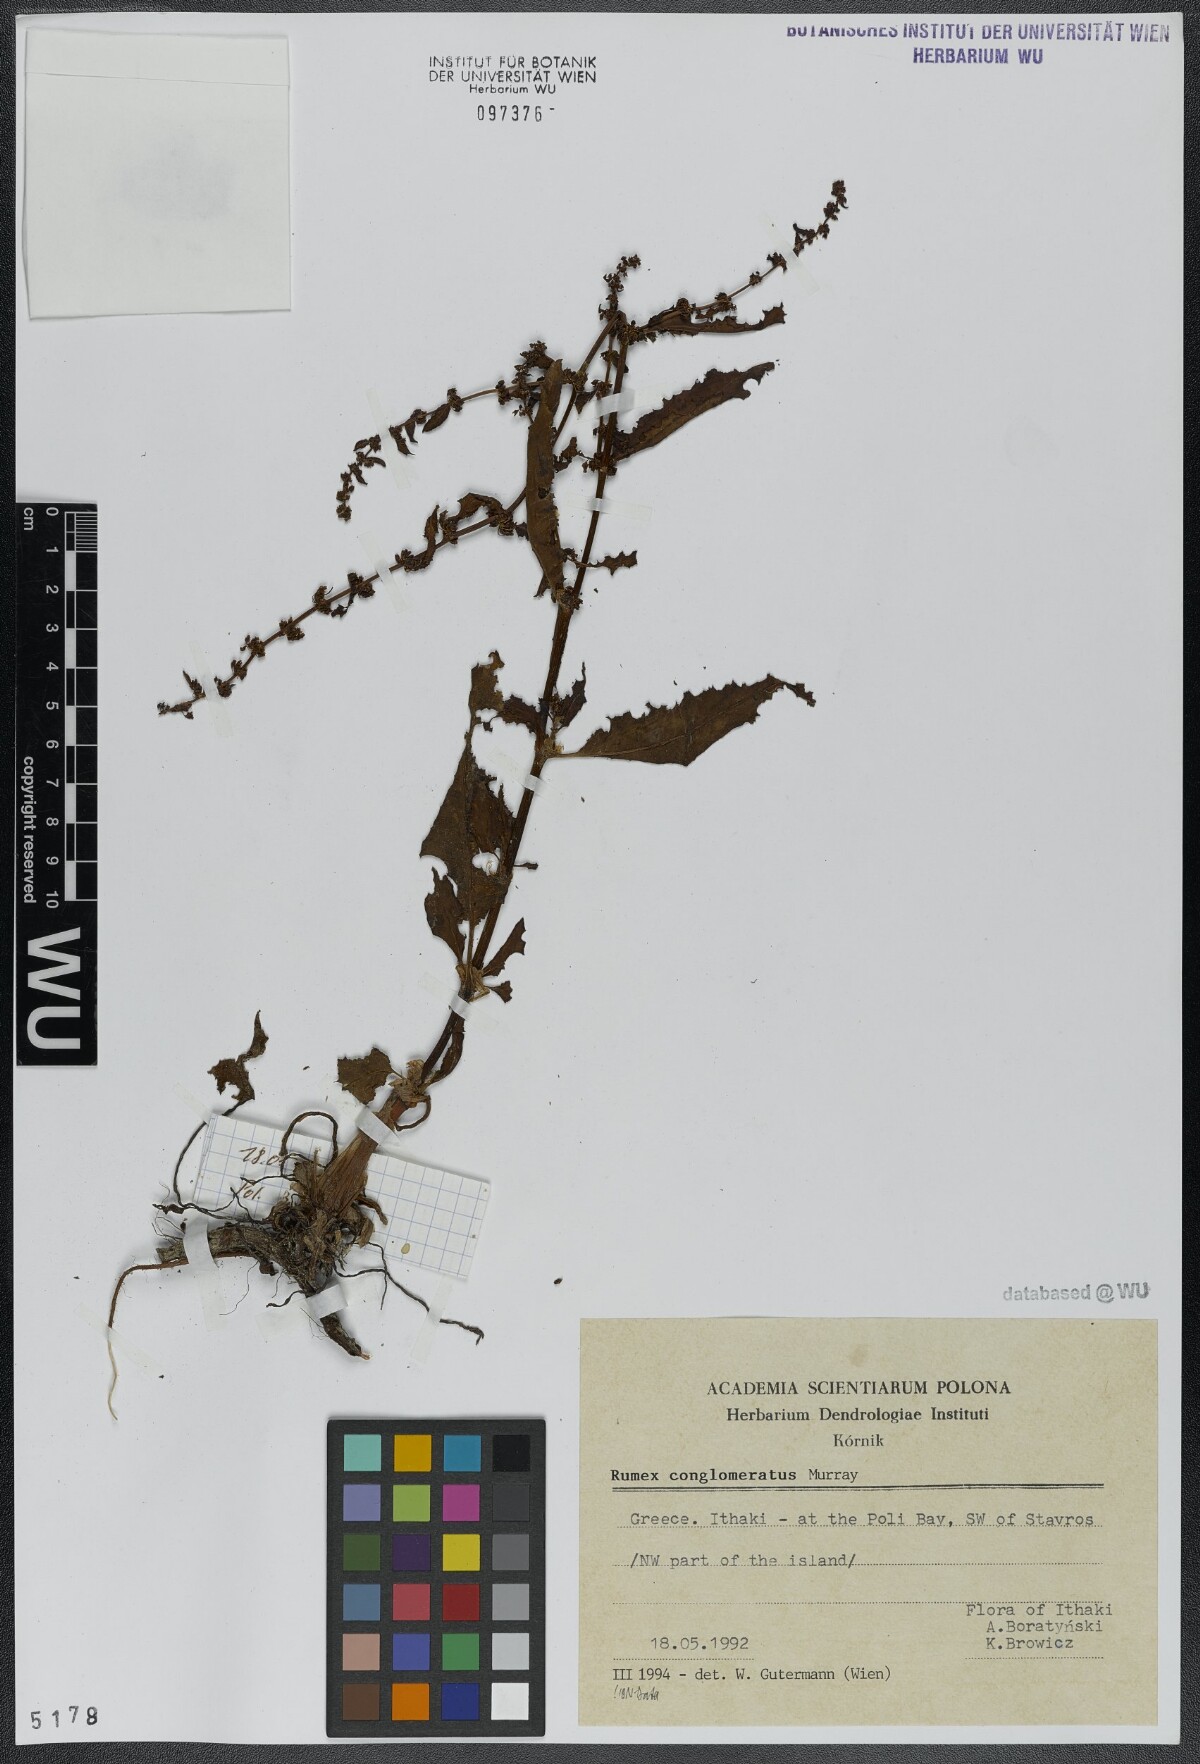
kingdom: Plantae
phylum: Tracheophyta
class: Magnoliopsida
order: Caryophyllales
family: Polygonaceae
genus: Rumex
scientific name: Rumex conglomeratus
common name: Clustered dock
